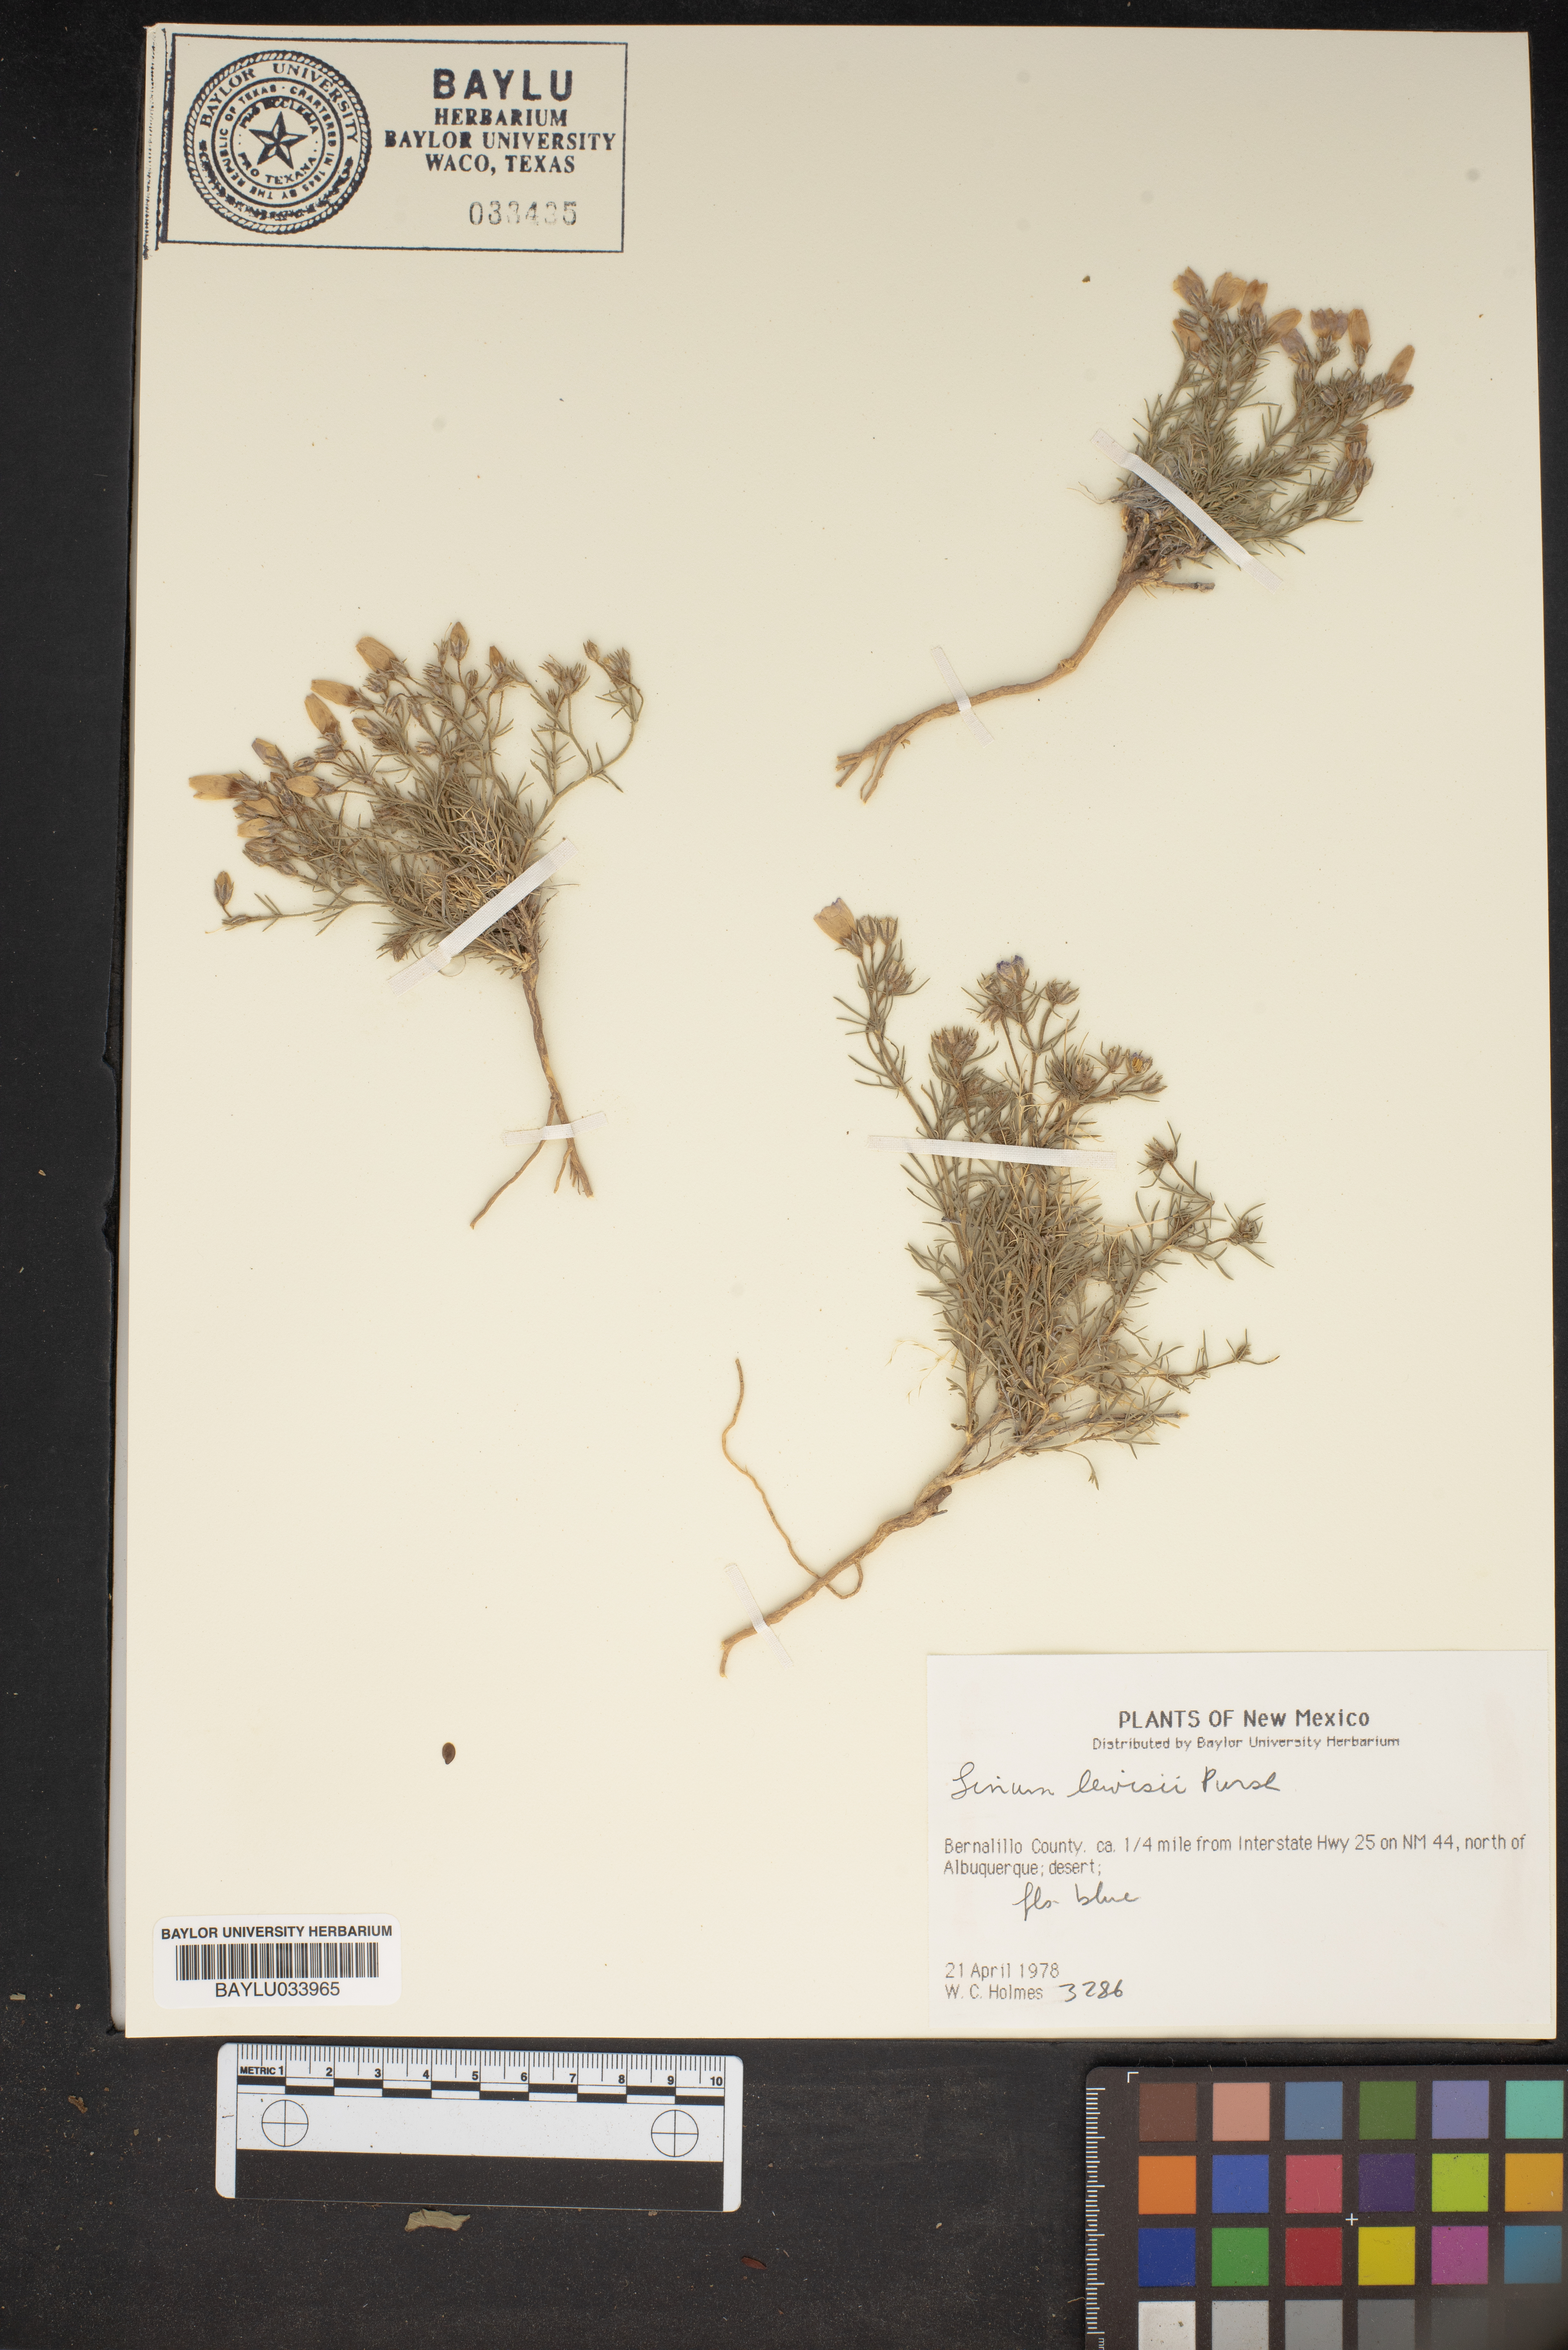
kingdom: Plantae
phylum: Tracheophyta
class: Magnoliopsida
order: Malpighiales
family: Linaceae
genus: Linum
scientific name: Linum lewisii
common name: Prairie flax
